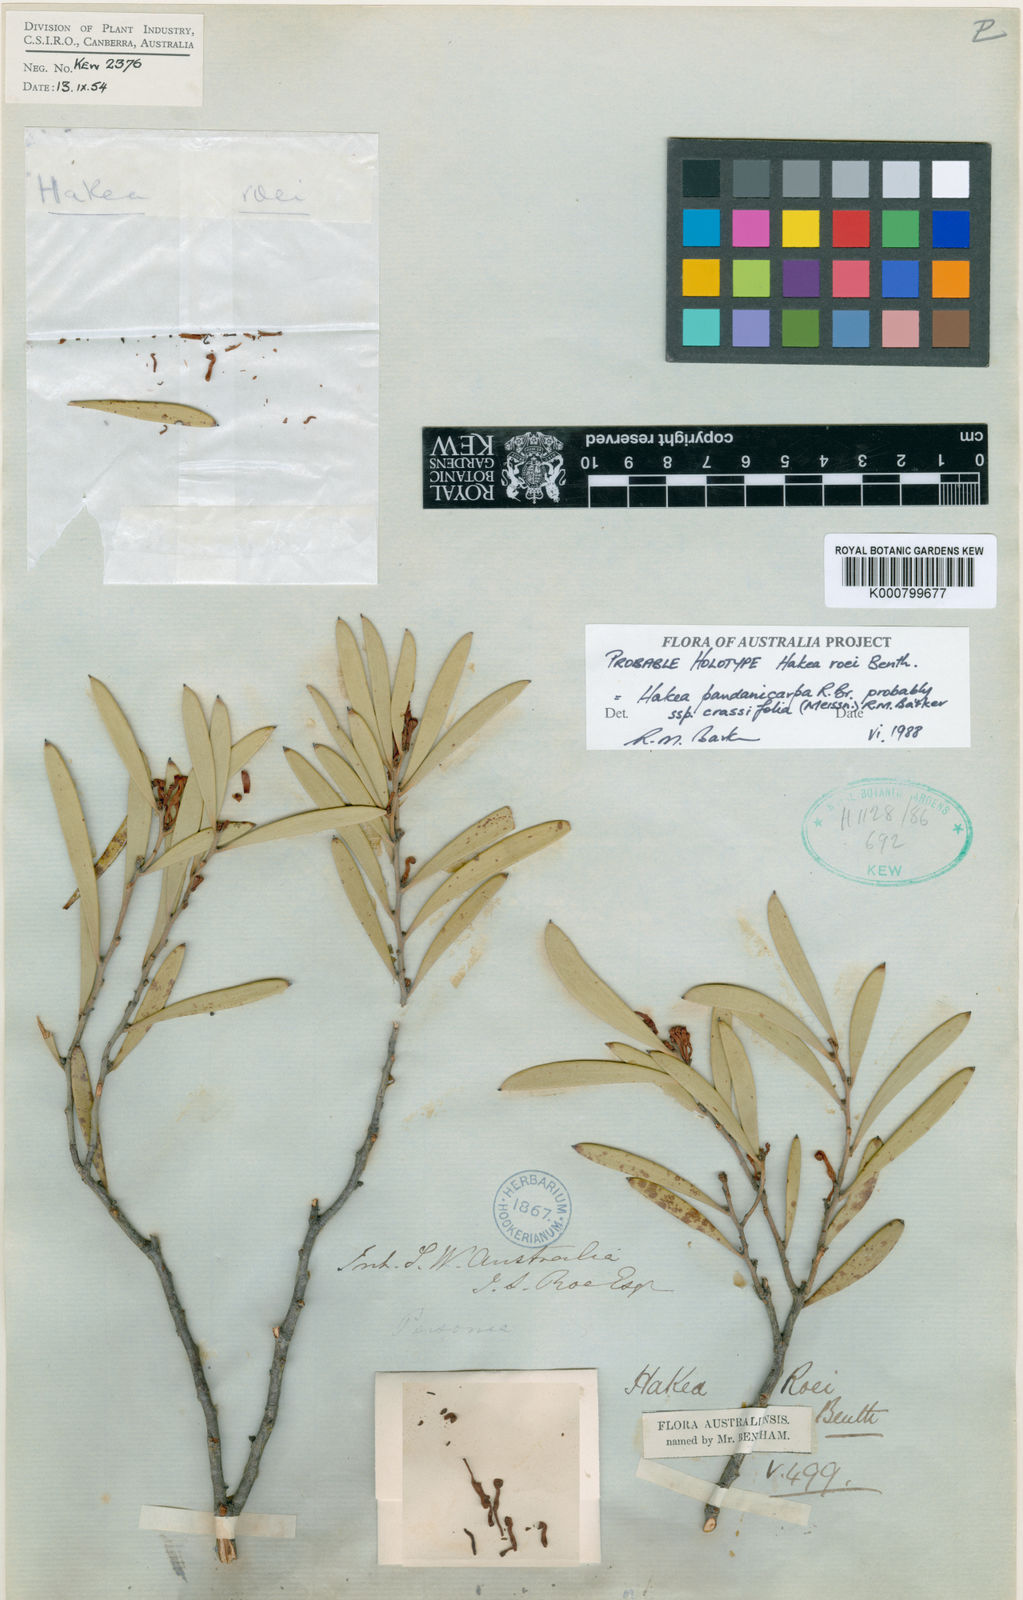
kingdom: Plantae
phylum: Tracheophyta
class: Magnoliopsida
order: Proteales
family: Proteaceae
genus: Hakea
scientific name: Hakea pandanicarpa
